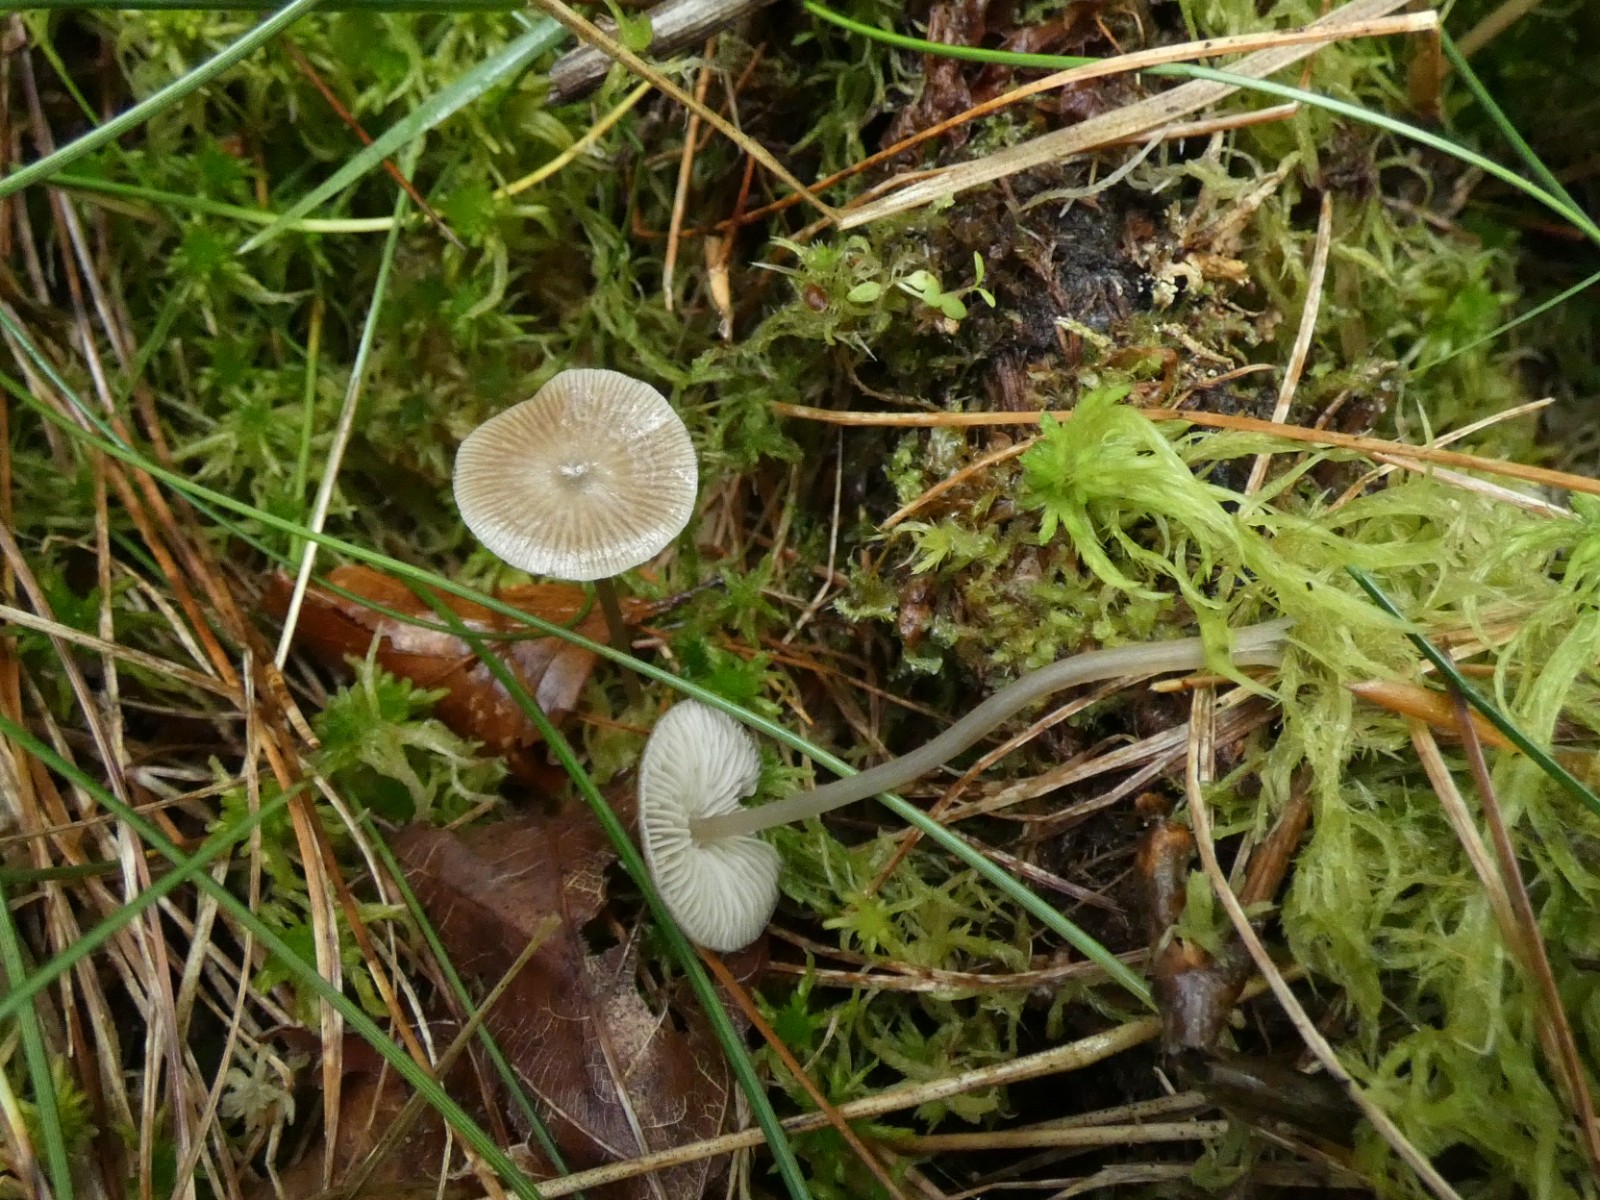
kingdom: Fungi
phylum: Basidiomycota
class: Agaricomycetes
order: Agaricales
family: Lyophyllaceae
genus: Sphagnurus
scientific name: Sphagnurus paluster
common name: tørvemos-gråblad
